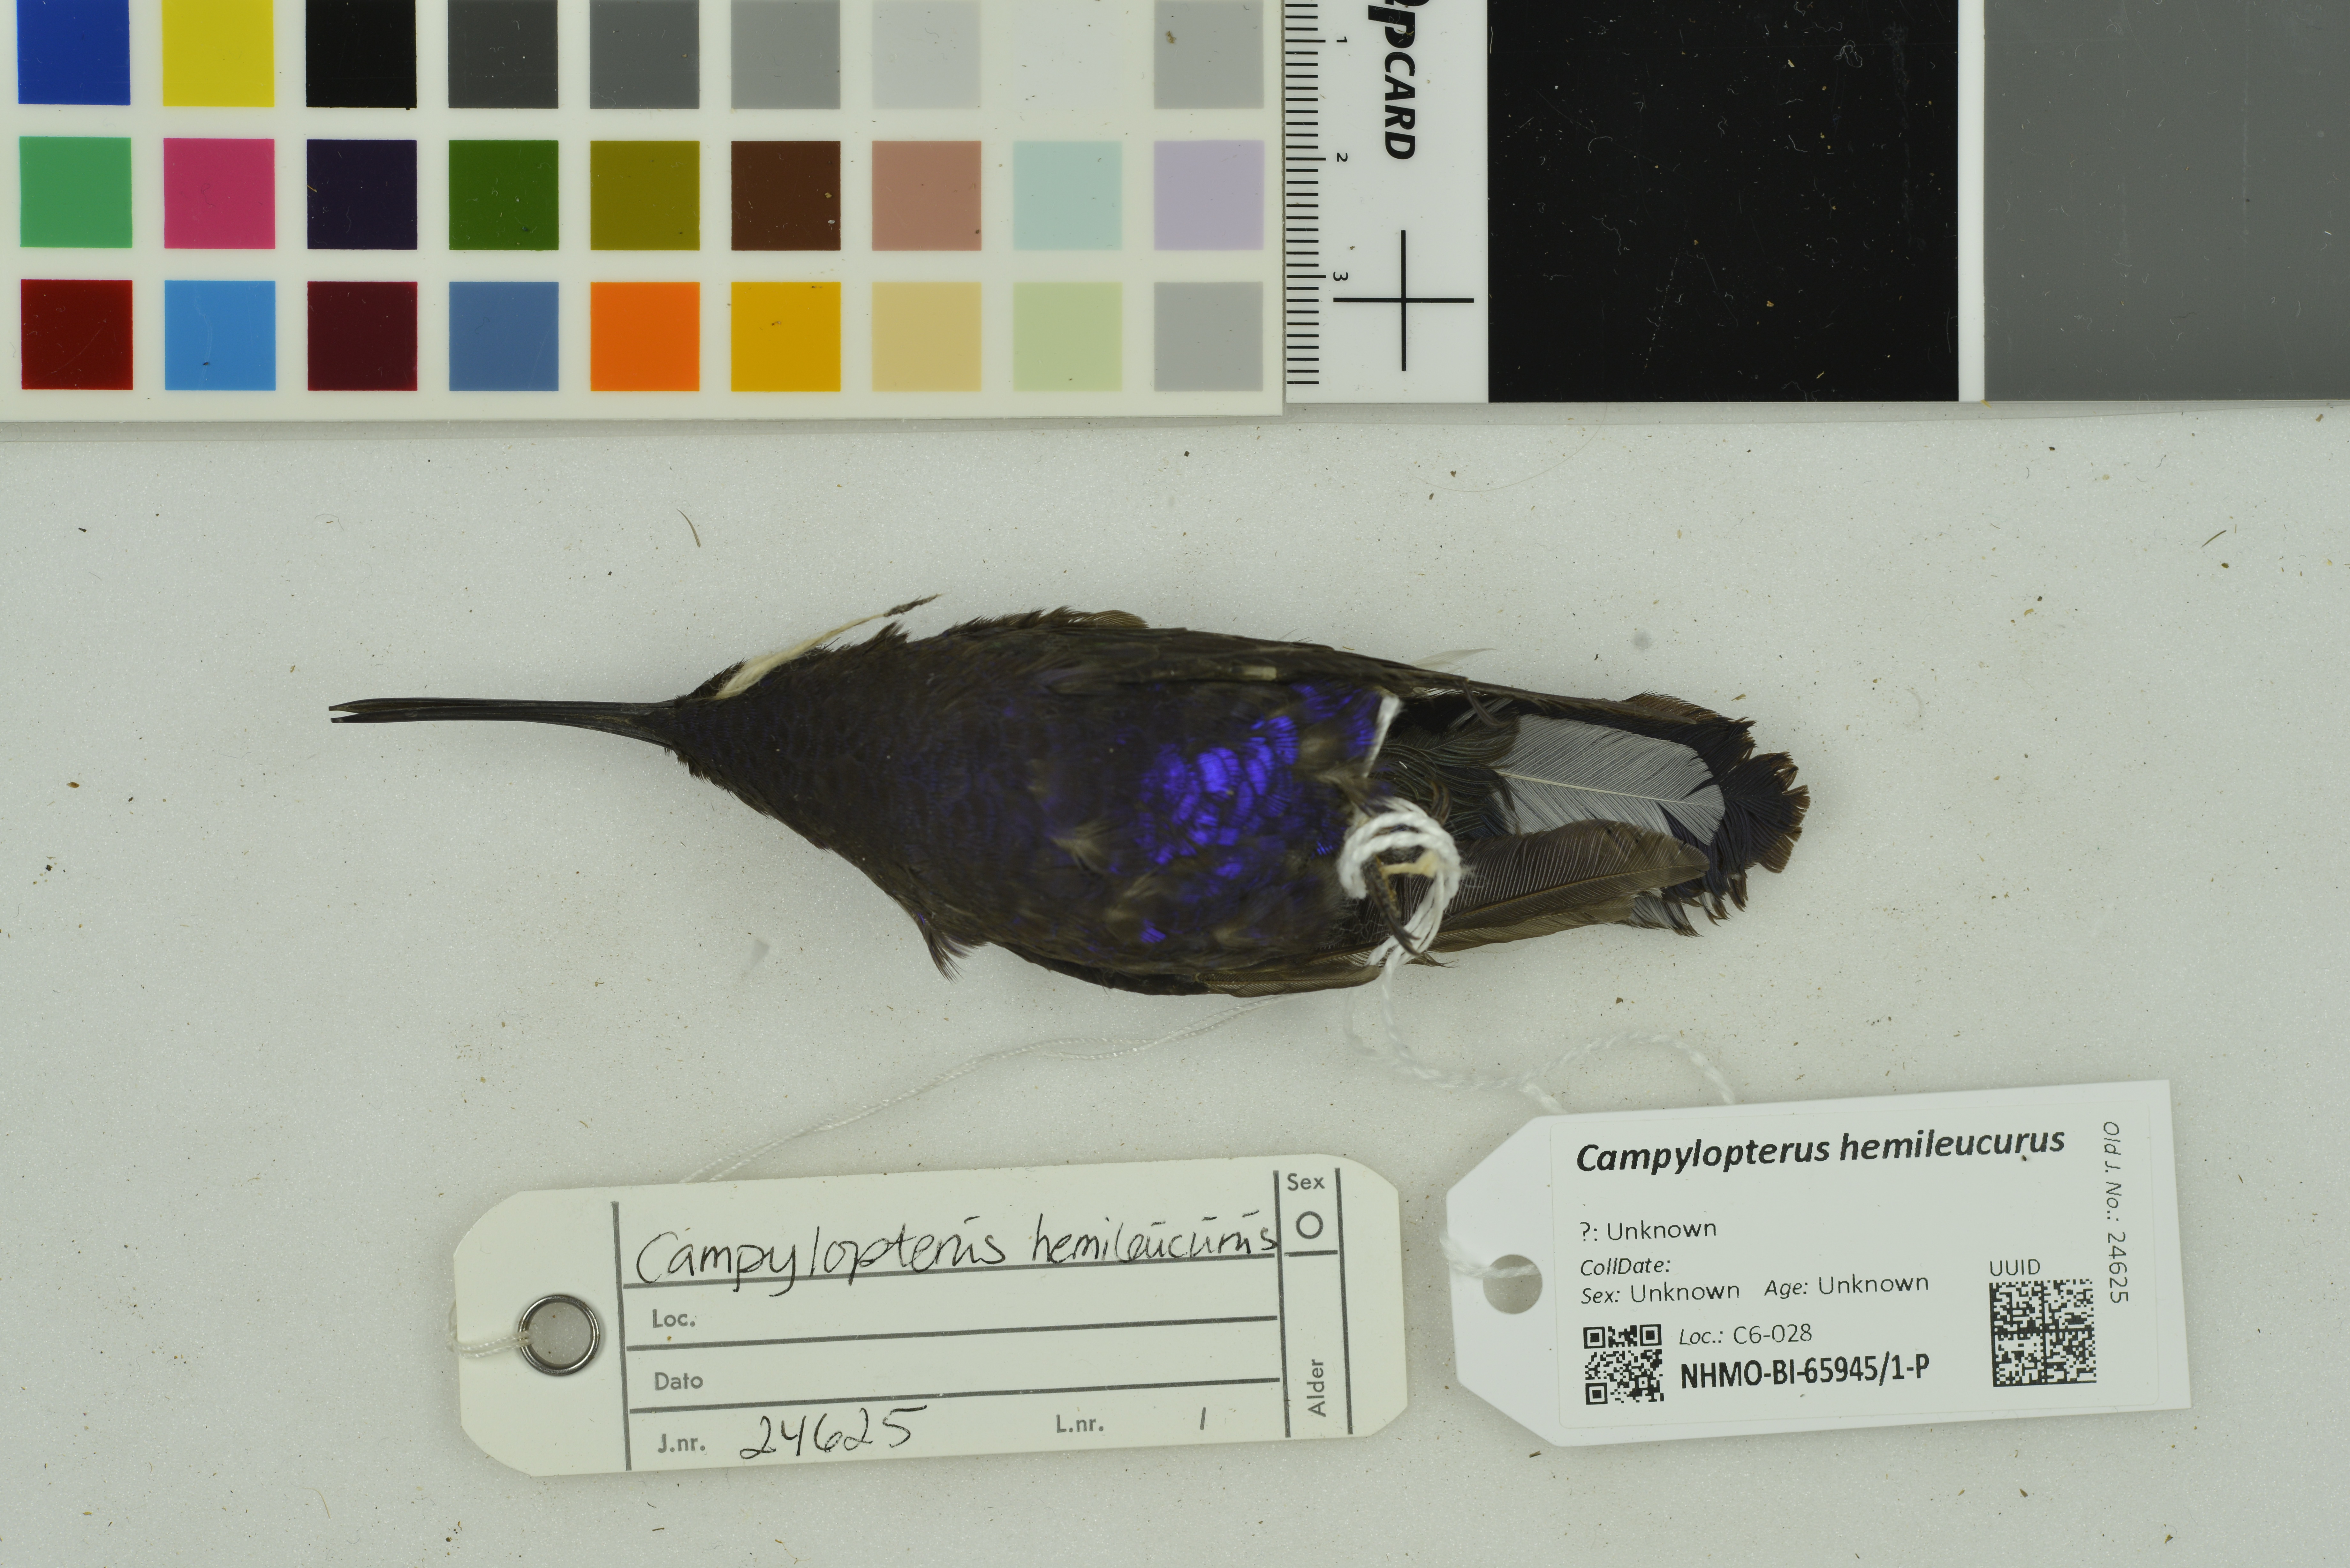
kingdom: Animalia
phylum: Chordata
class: Aves
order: Apodiformes
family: Trochilidae
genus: Campylopterus
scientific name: Campylopterus hemileucurus
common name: Violet sabrewing
